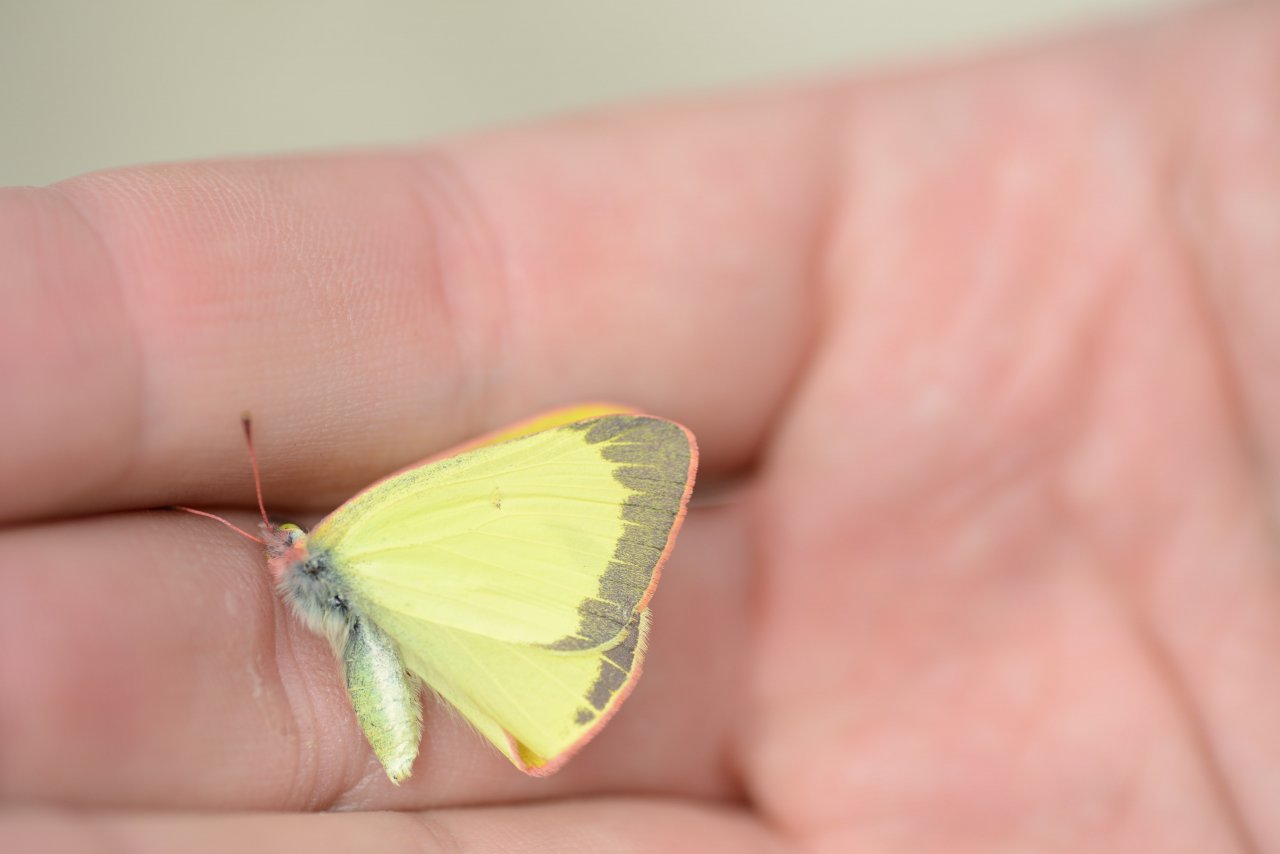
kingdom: Animalia
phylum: Arthropoda
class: Insecta
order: Lepidoptera
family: Pieridae
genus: Colias
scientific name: Colias interior
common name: Pink-edged Sulphur
